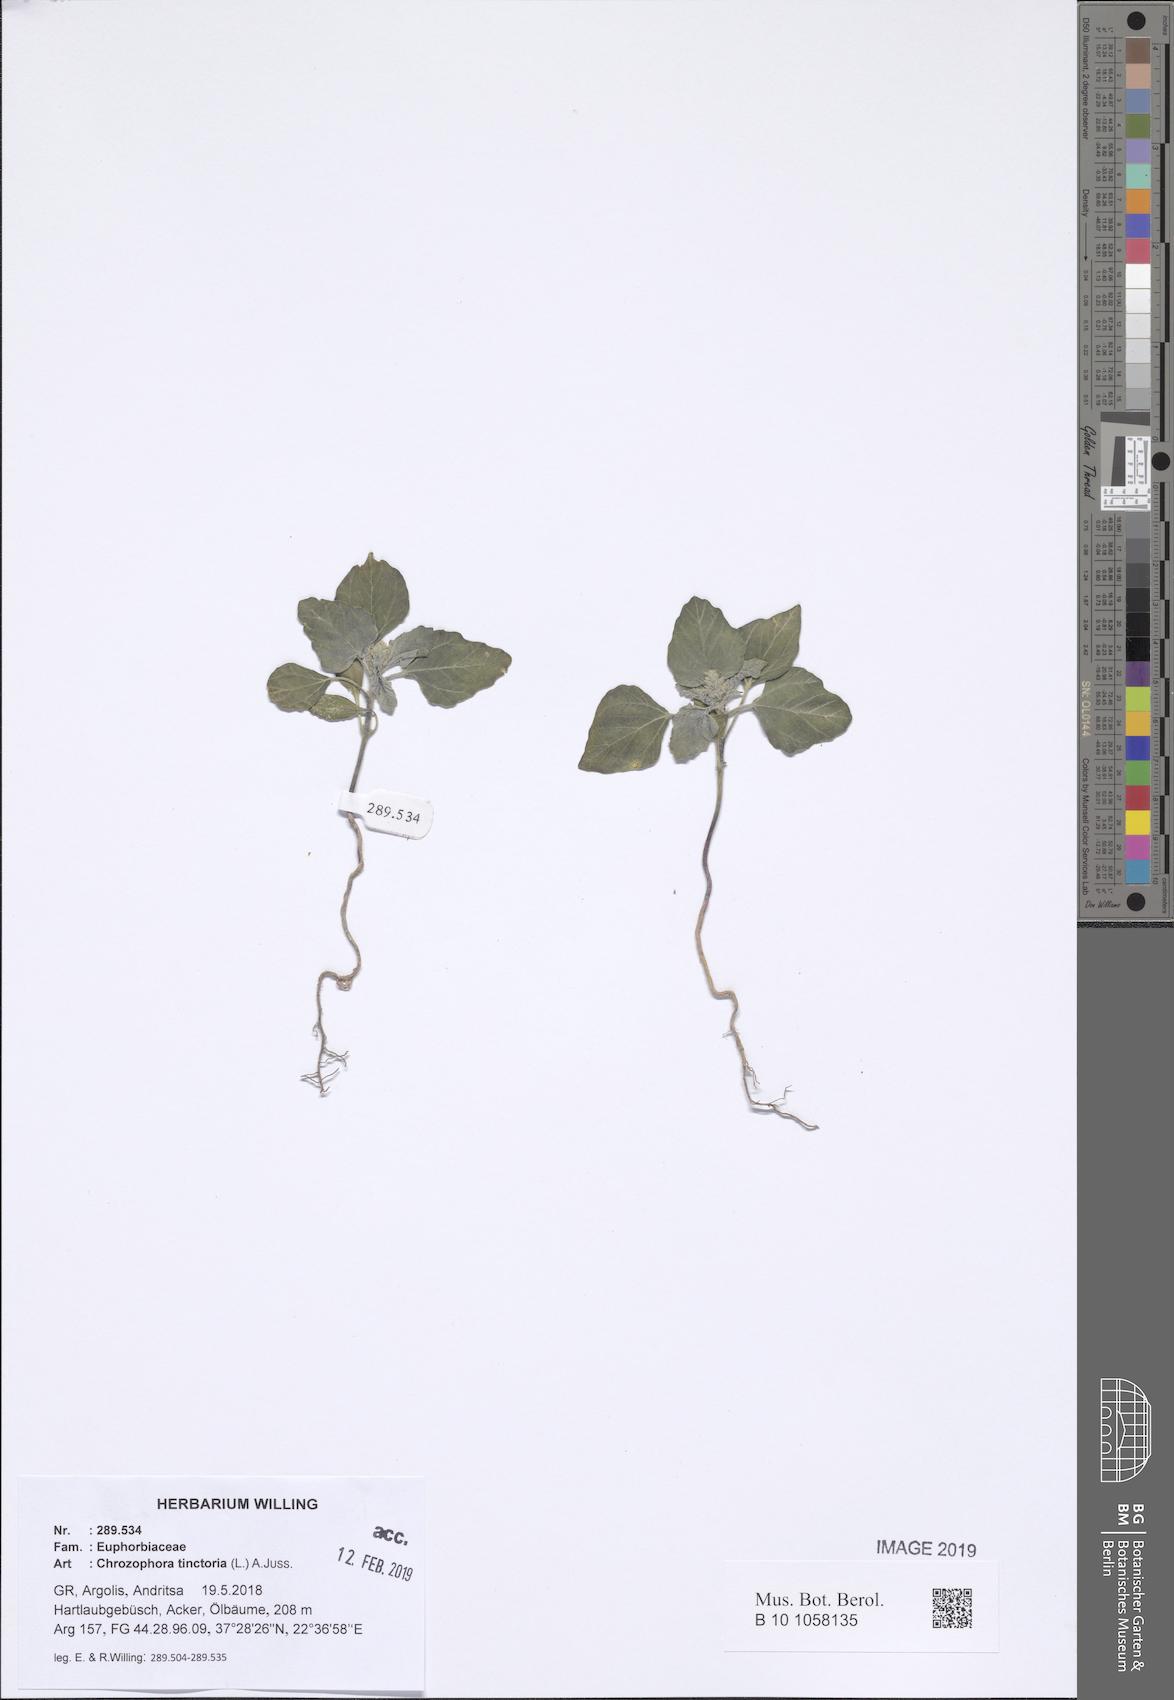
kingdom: Plantae
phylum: Tracheophyta
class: Magnoliopsida
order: Malpighiales
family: Euphorbiaceae
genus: Chrozophora
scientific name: Chrozophora tinctoria
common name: Dyer's litmus
